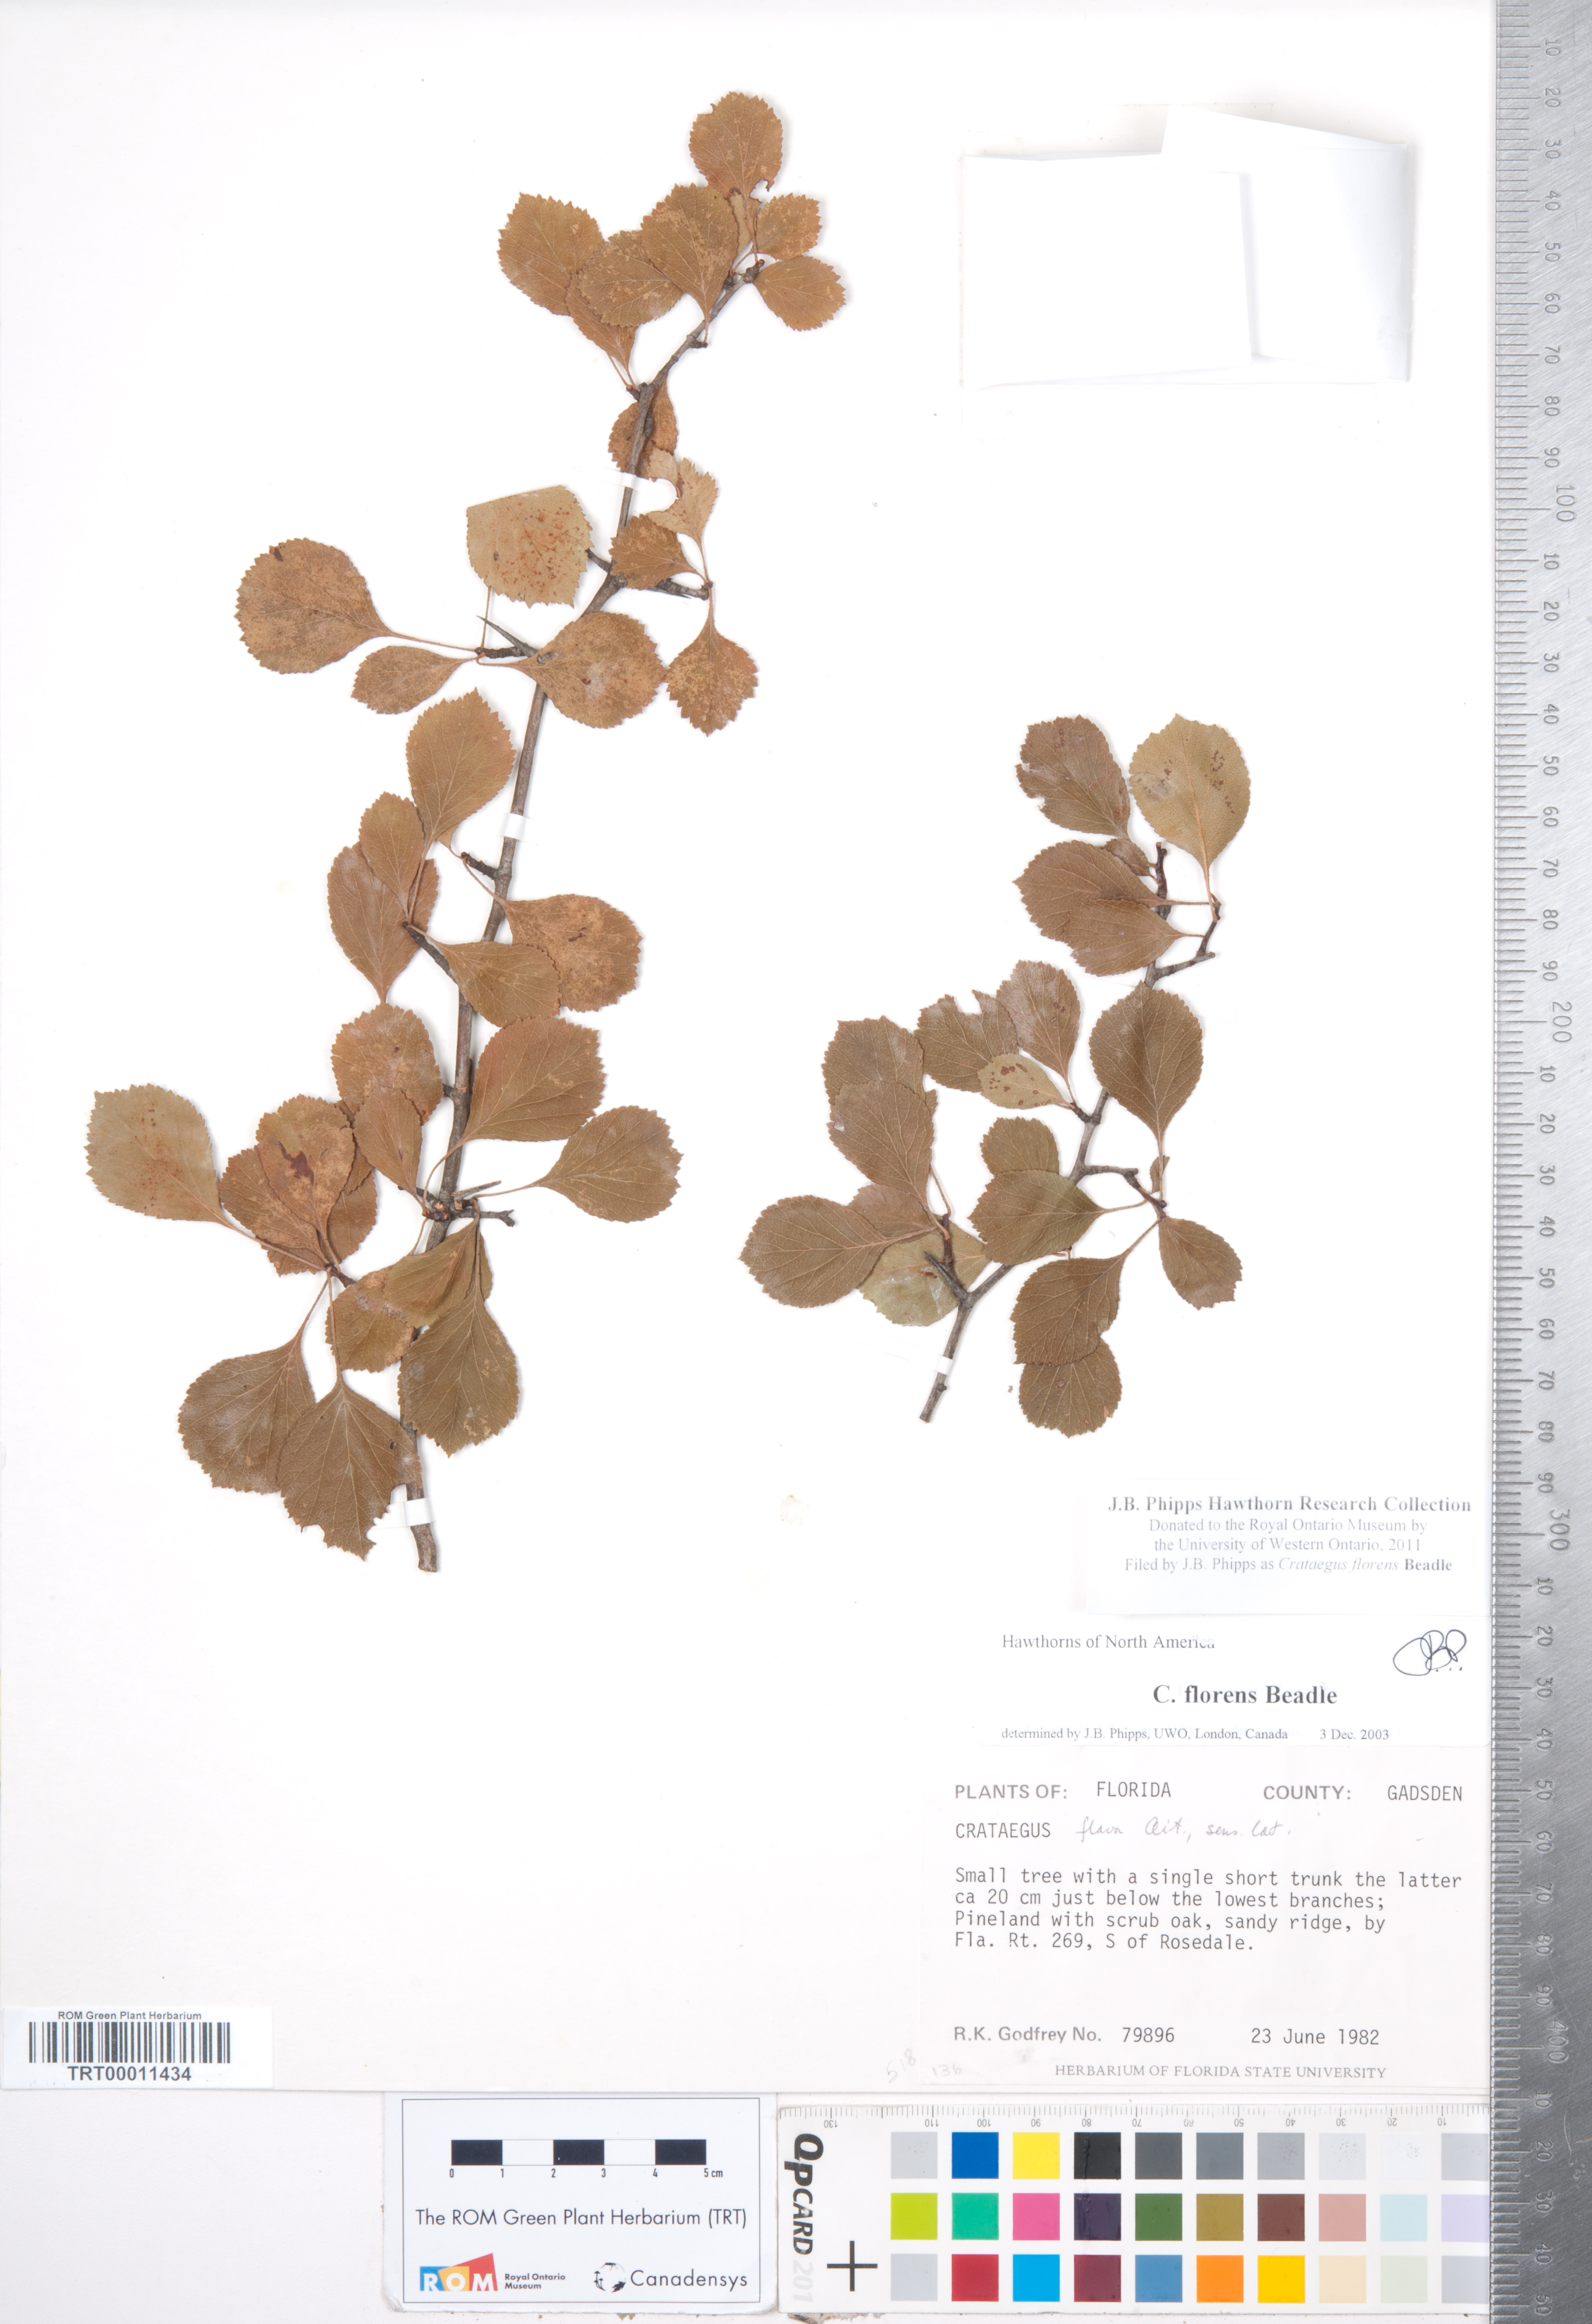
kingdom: Plantae
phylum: Tracheophyta
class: Magnoliopsida
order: Rosales
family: Rosaceae
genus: Crataegus
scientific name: Crataegus alabamensis
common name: Alabama hawthorn
